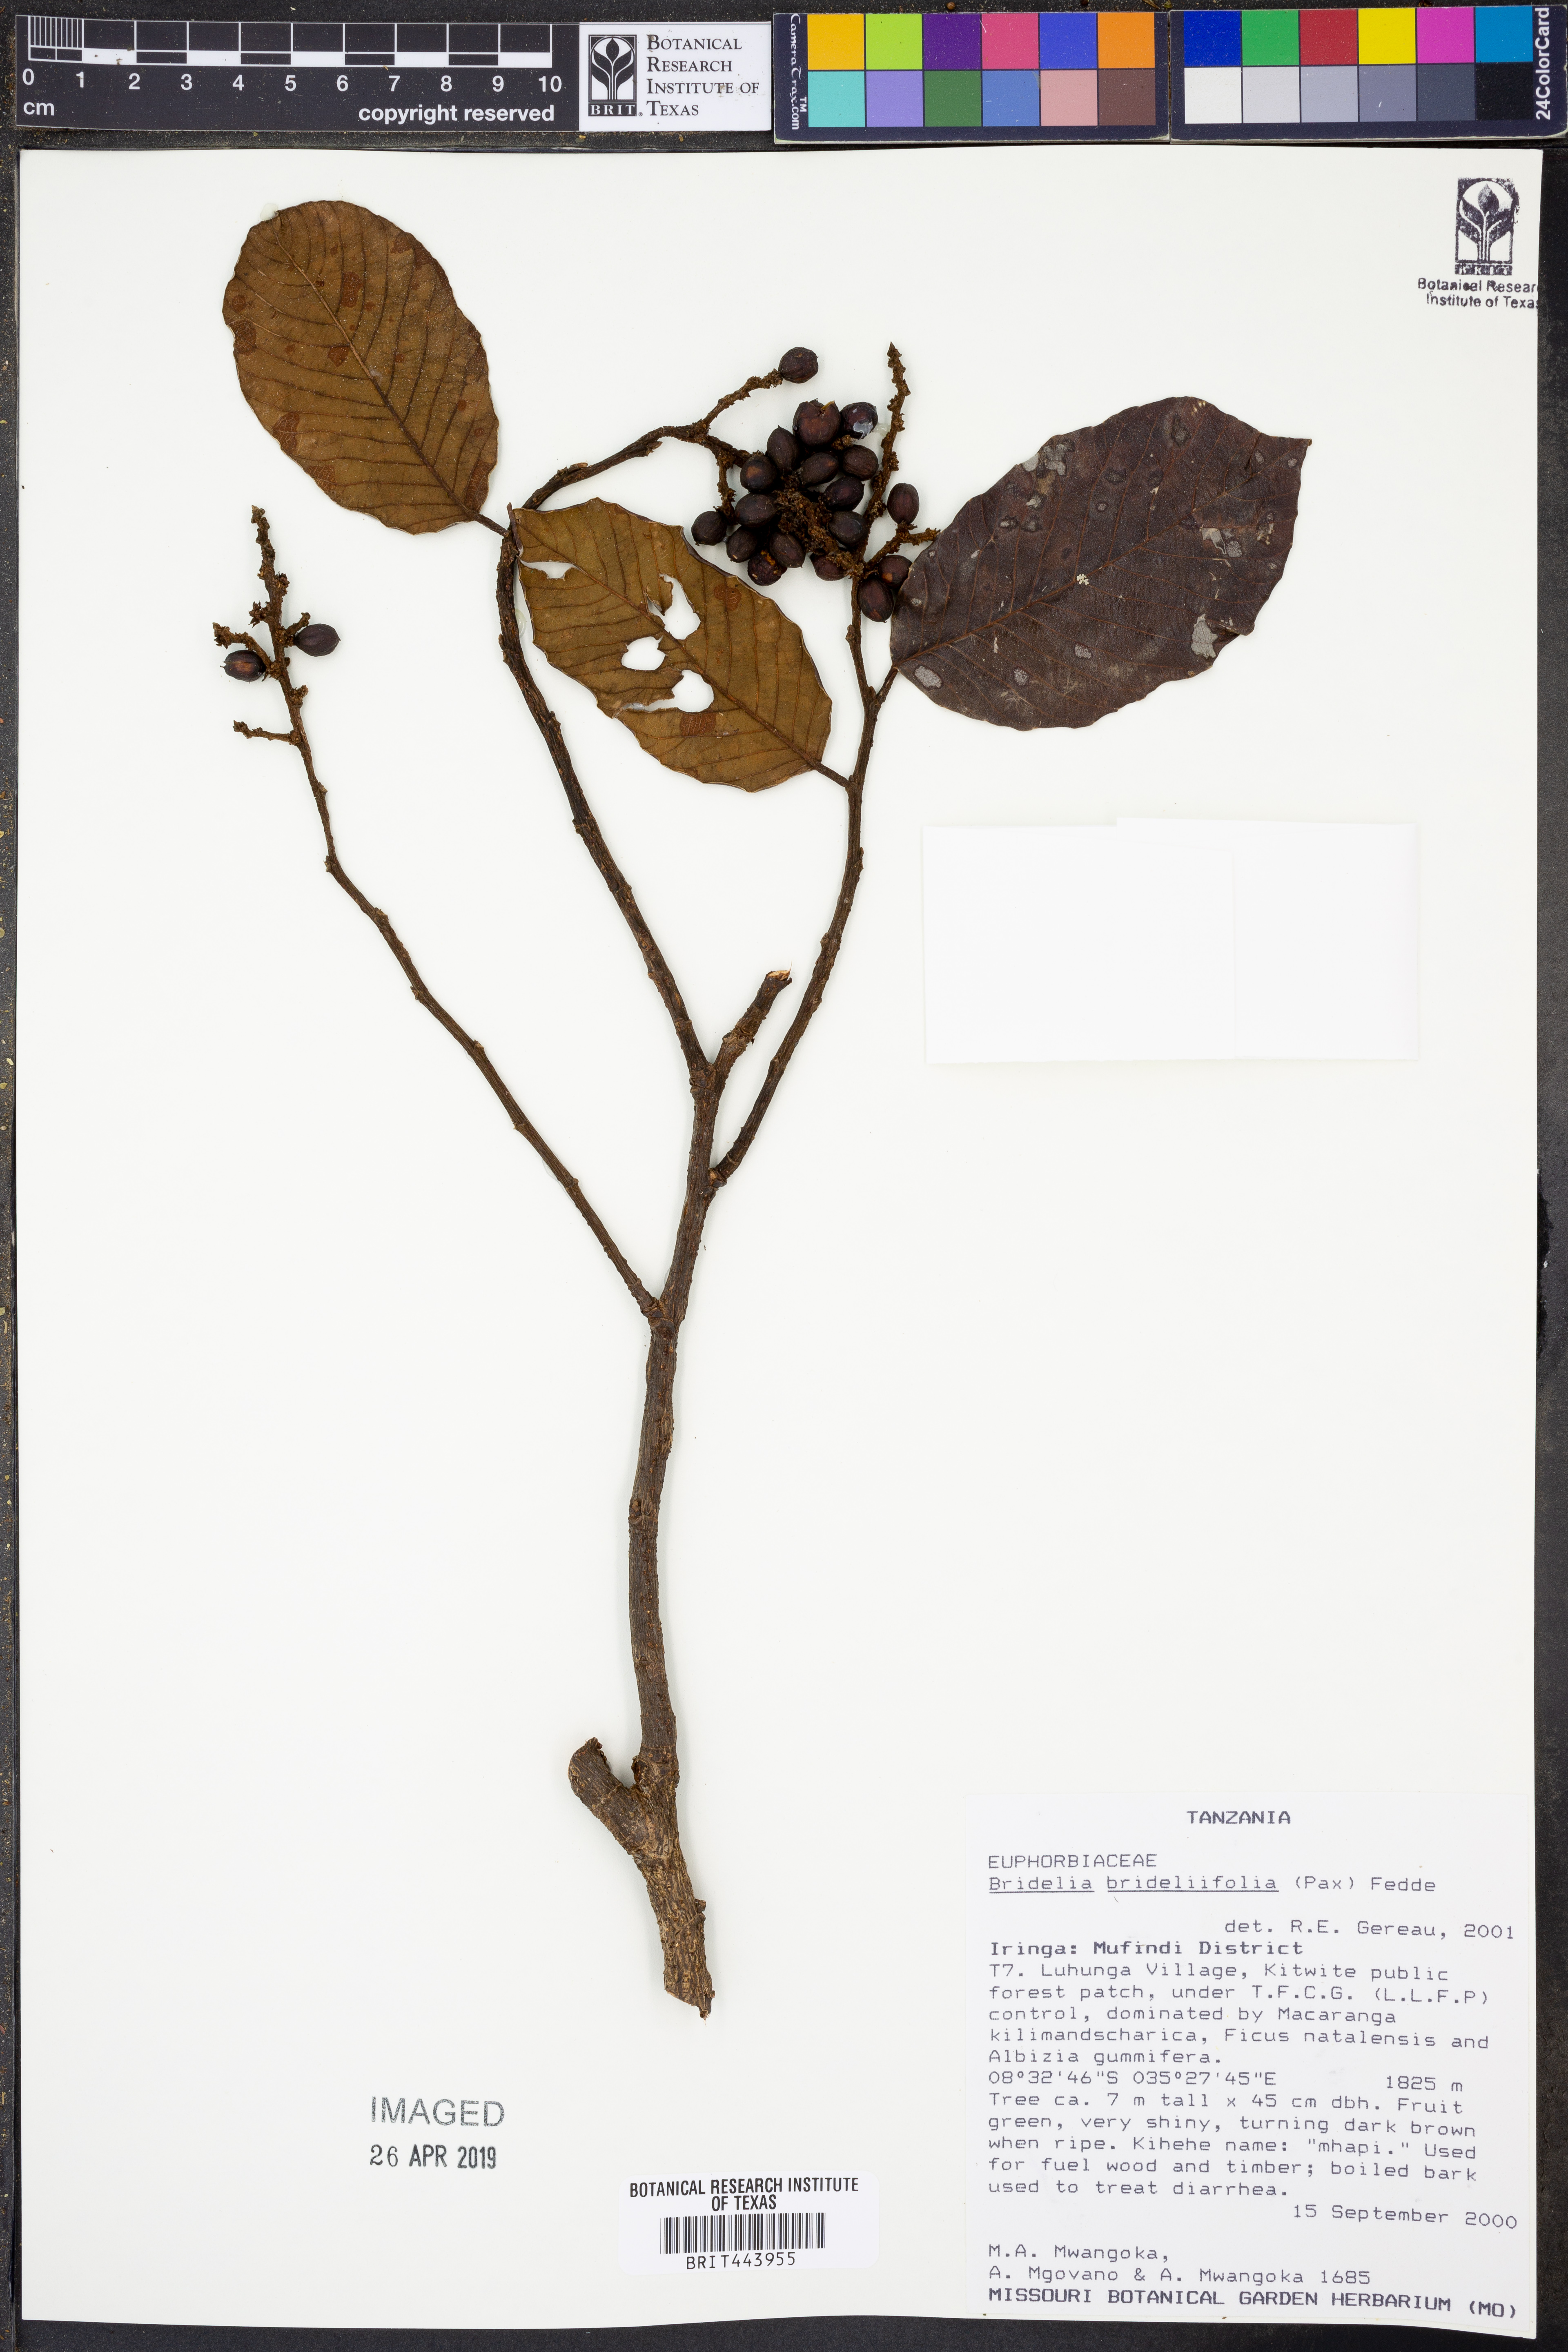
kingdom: Plantae
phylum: Tracheophyta
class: Magnoliopsida
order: Malpighiales
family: Phyllanthaceae
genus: Bridelia
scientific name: Bridelia brideliifolia
